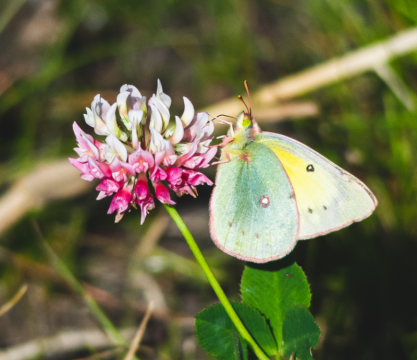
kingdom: Animalia
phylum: Arthropoda
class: Insecta
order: Lepidoptera
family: Pieridae
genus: Colias
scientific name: Colias philodice
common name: Clouded Sulphur
